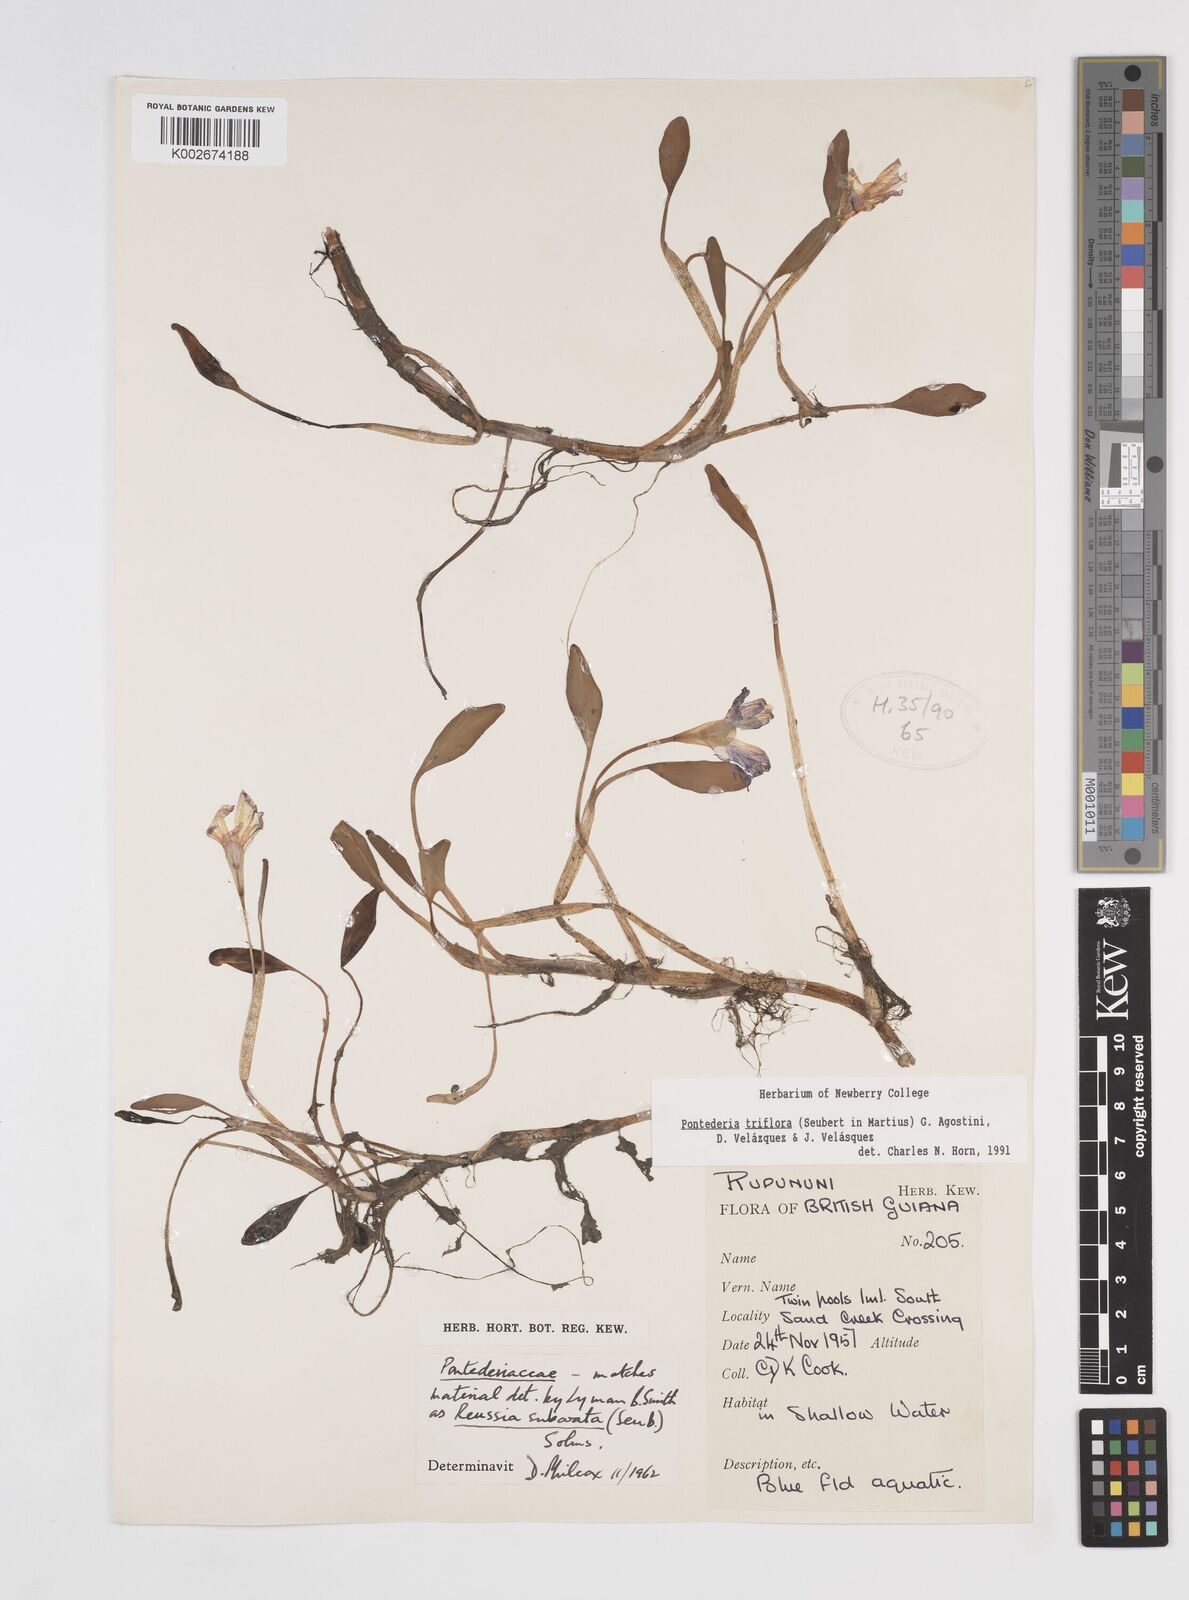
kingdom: Plantae
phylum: Tracheophyta
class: Liliopsida
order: Commelinales
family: Pontederiaceae
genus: Pontederia
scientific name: Pontederia triflora
